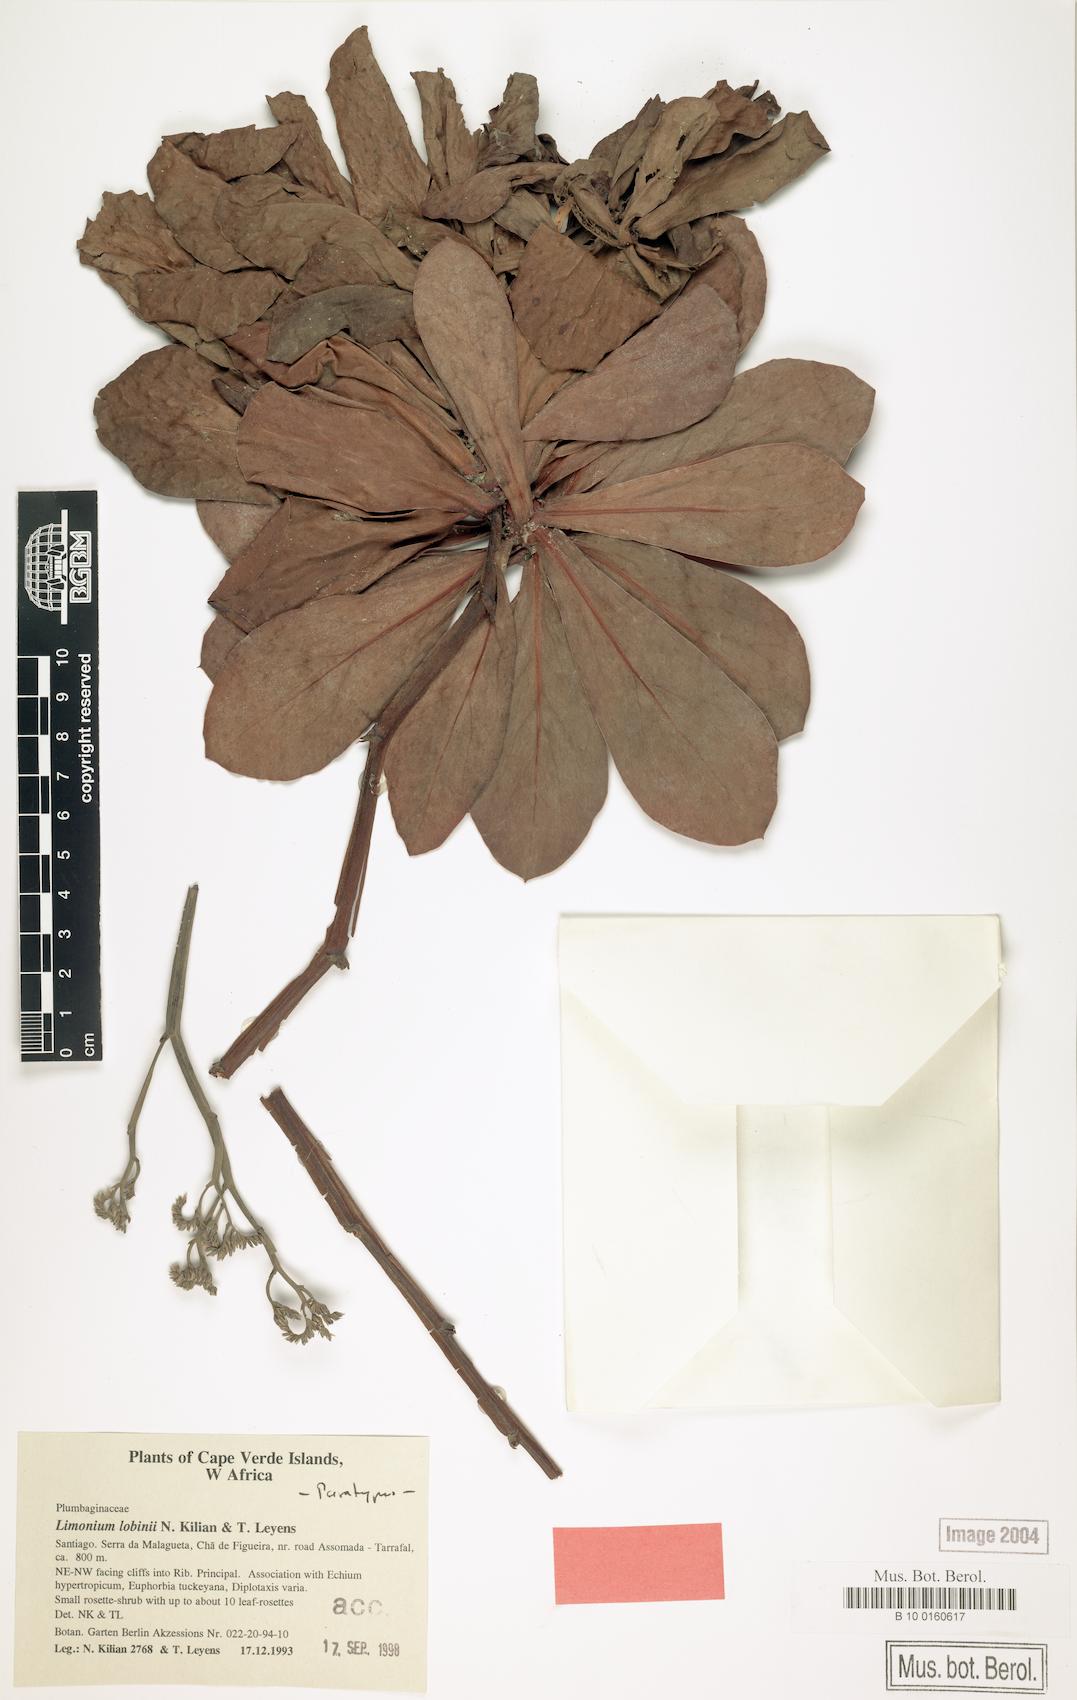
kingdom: Plantae
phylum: Tracheophyta
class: Magnoliopsida
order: Caryophyllales
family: Plumbaginaceae
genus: Limonium
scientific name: Limonium lobinii
